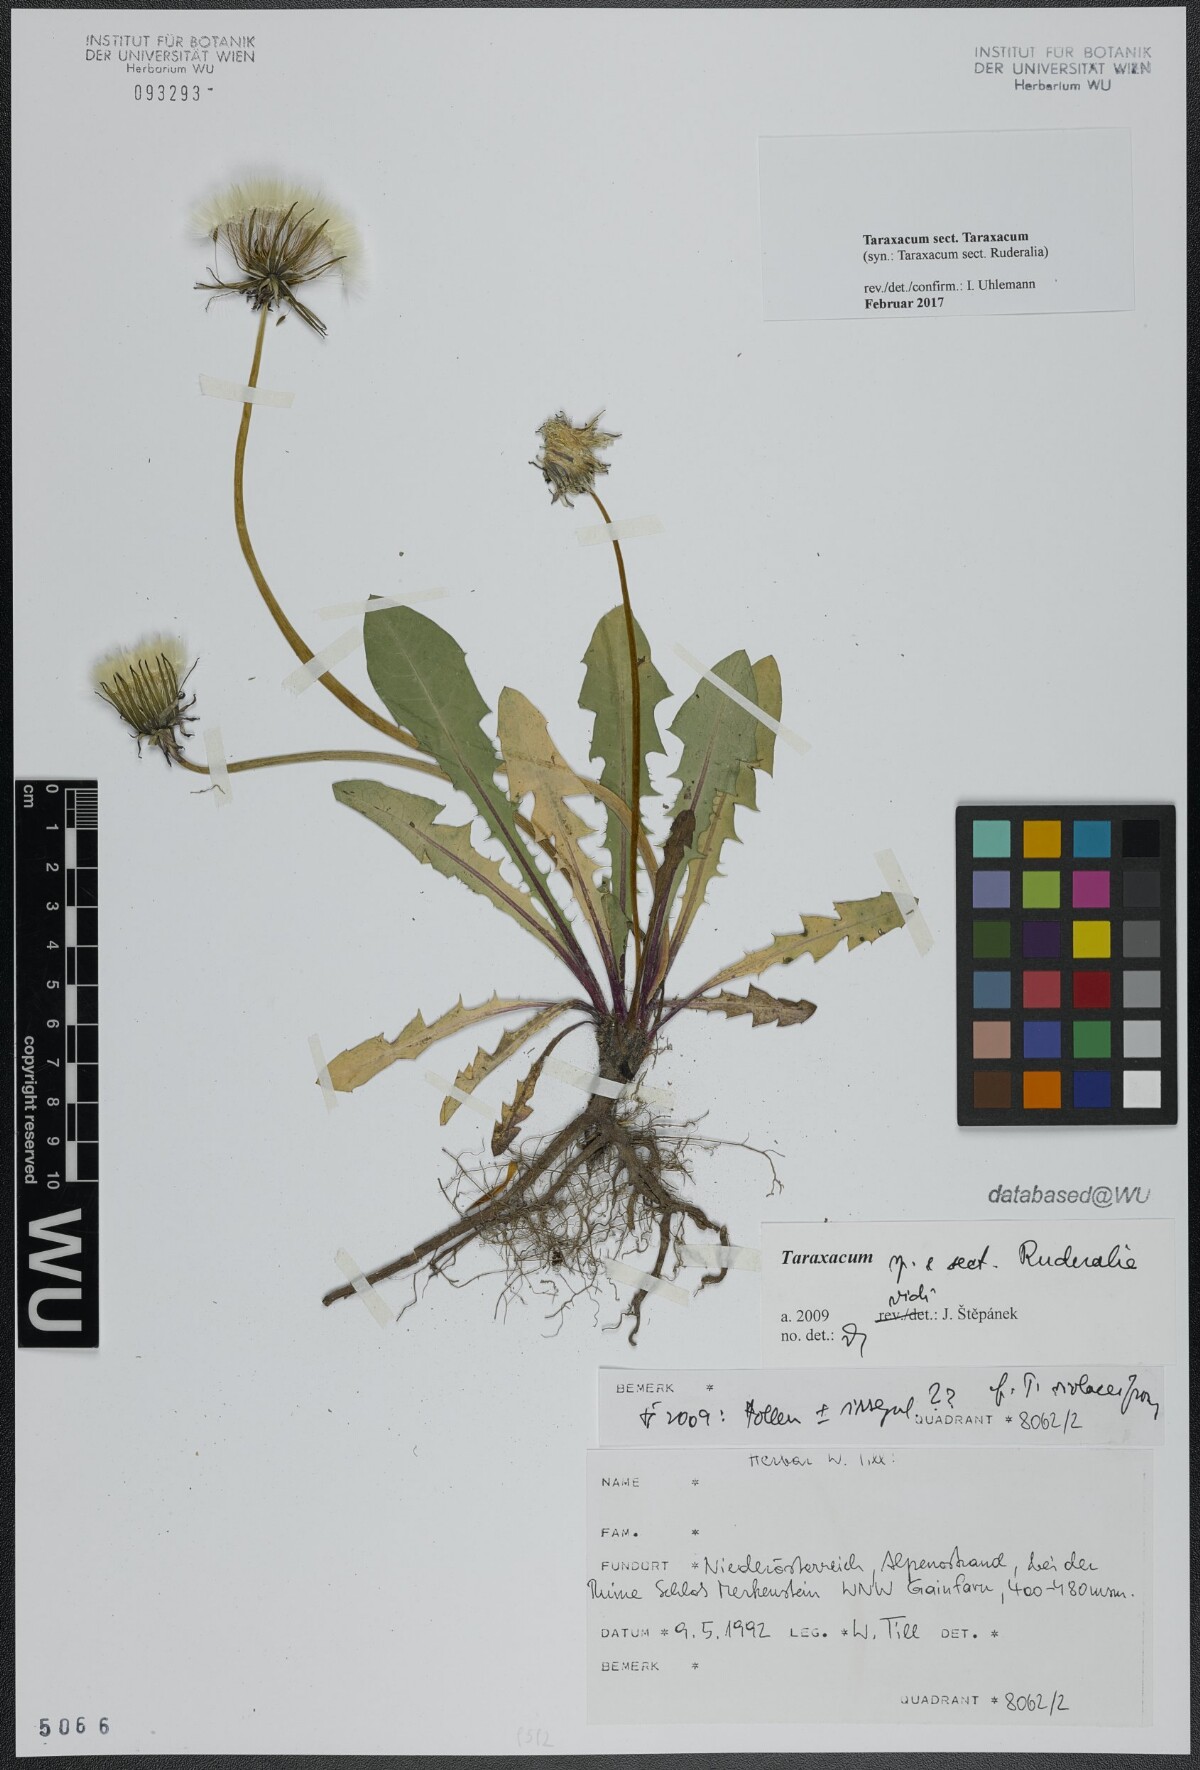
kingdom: Plantae
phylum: Tracheophyta
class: Magnoliopsida
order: Asterales
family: Asteraceae
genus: Taraxacum
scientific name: Taraxacum
